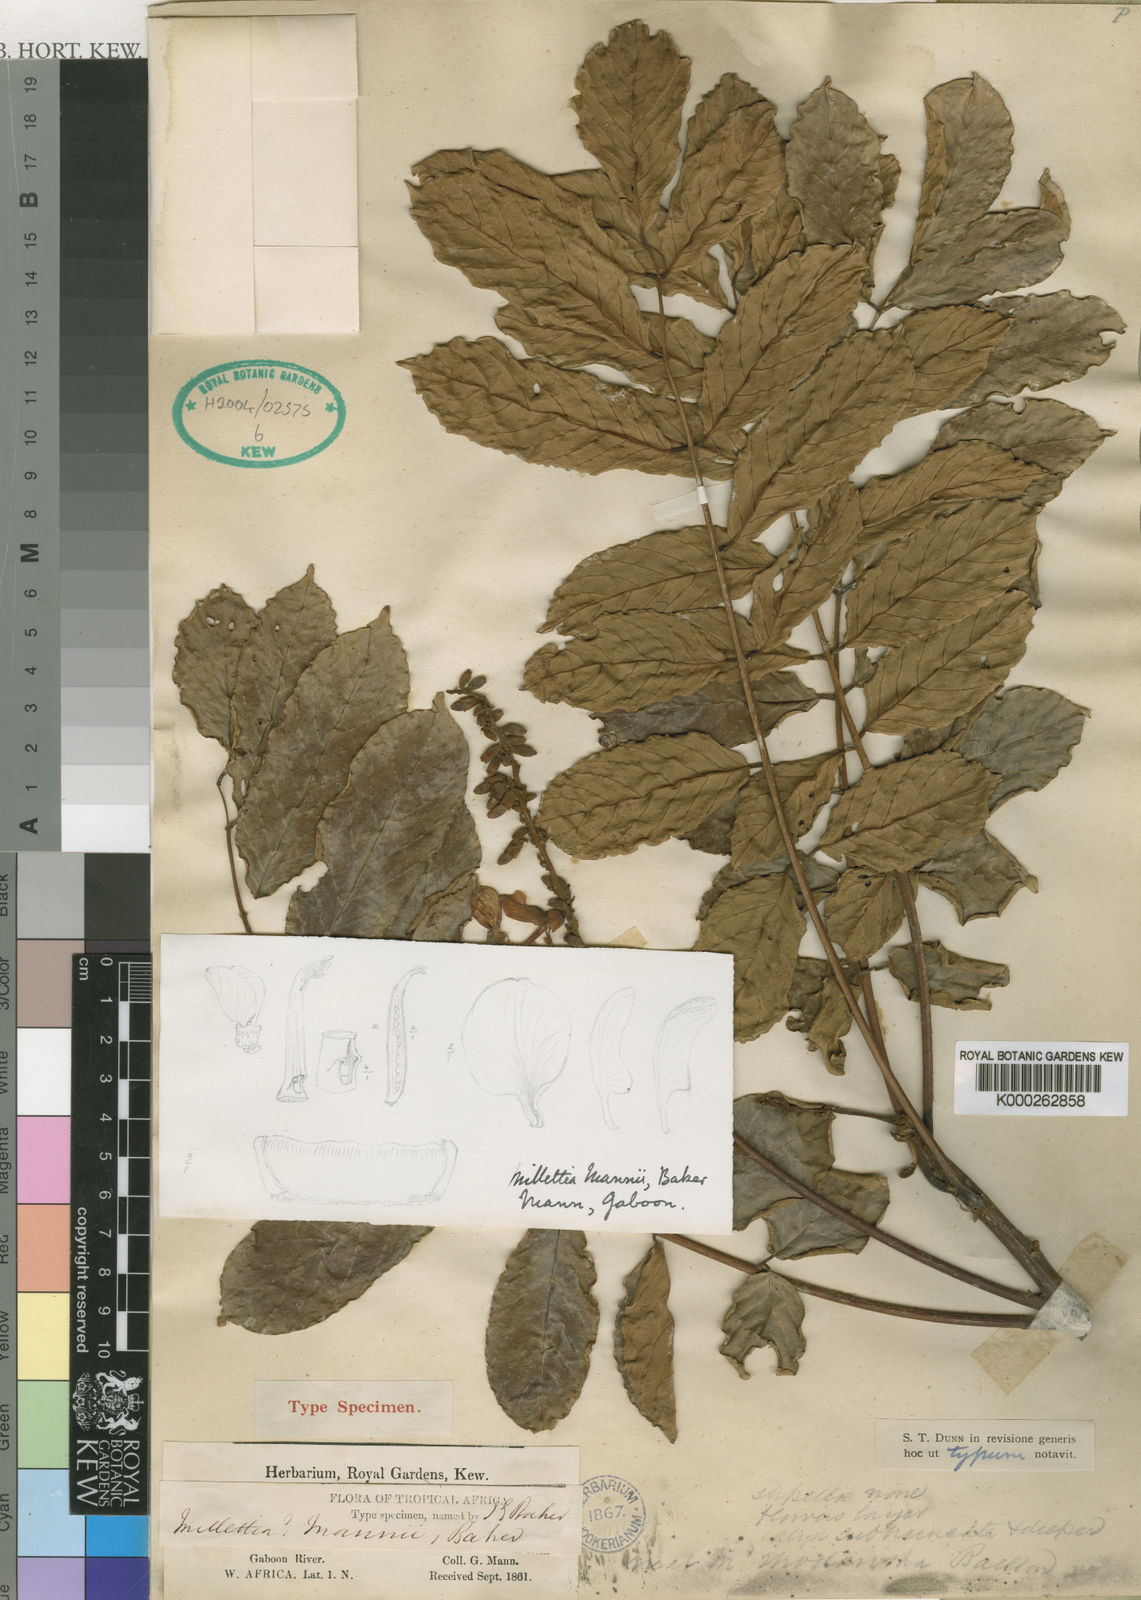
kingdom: Plantae
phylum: Tracheophyta
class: Magnoliopsida
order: Fabales
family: Fabaceae
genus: Millettia
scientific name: Millettia mannii
